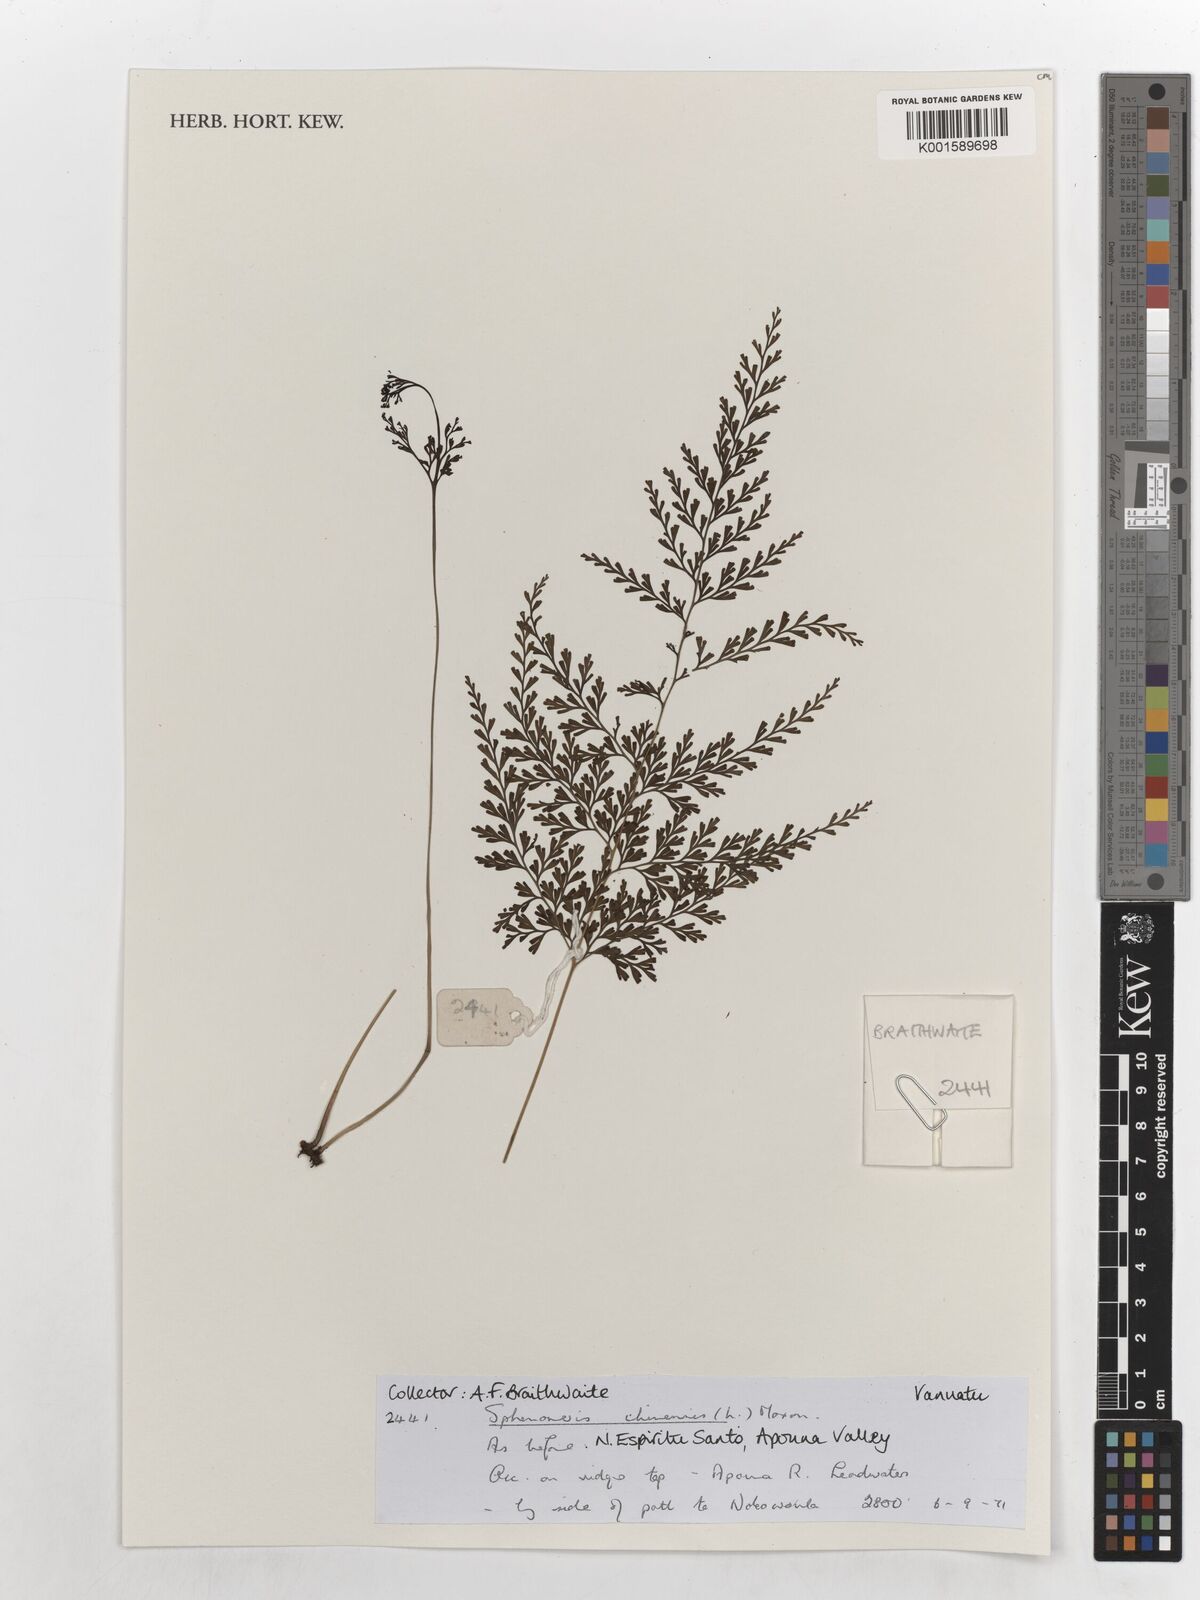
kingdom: Plantae
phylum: Tracheophyta
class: Polypodiopsida
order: Polypodiales
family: Lindsaeaceae
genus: Odontosoria
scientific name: Odontosoria chinensis
